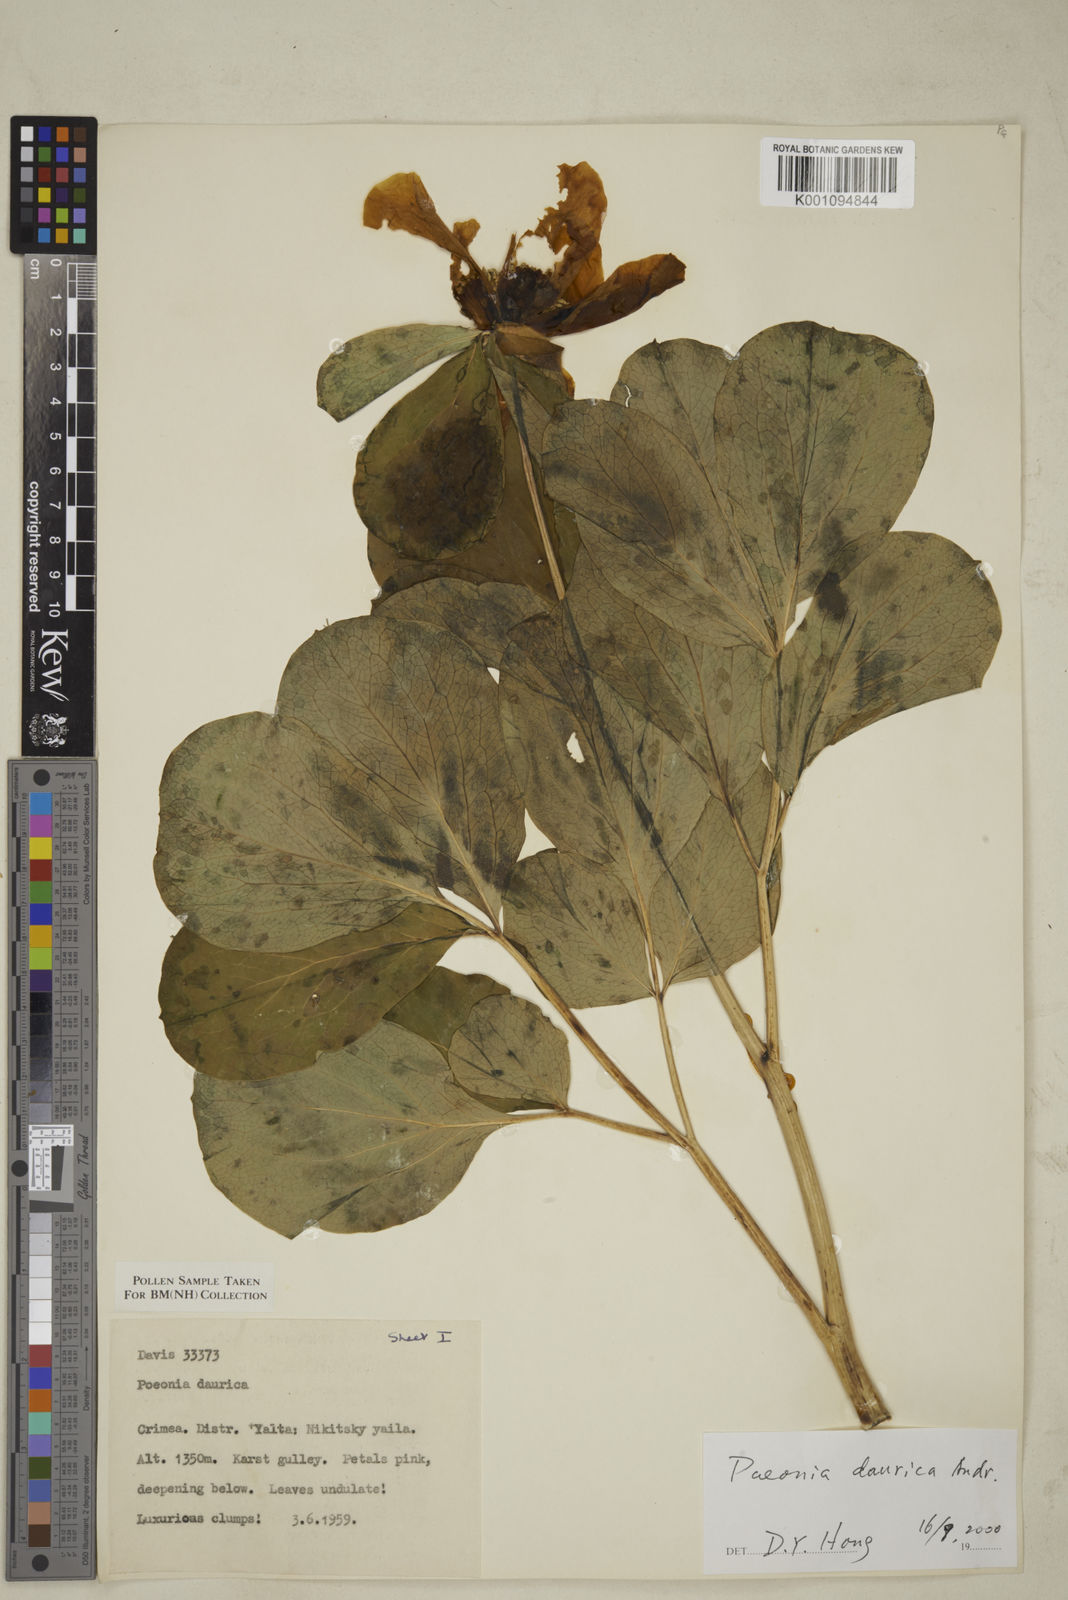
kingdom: Plantae
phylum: Tracheophyta
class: Magnoliopsida
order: Saxifragales
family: Paeoniaceae
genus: Paeonia
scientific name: Paeonia daurica
